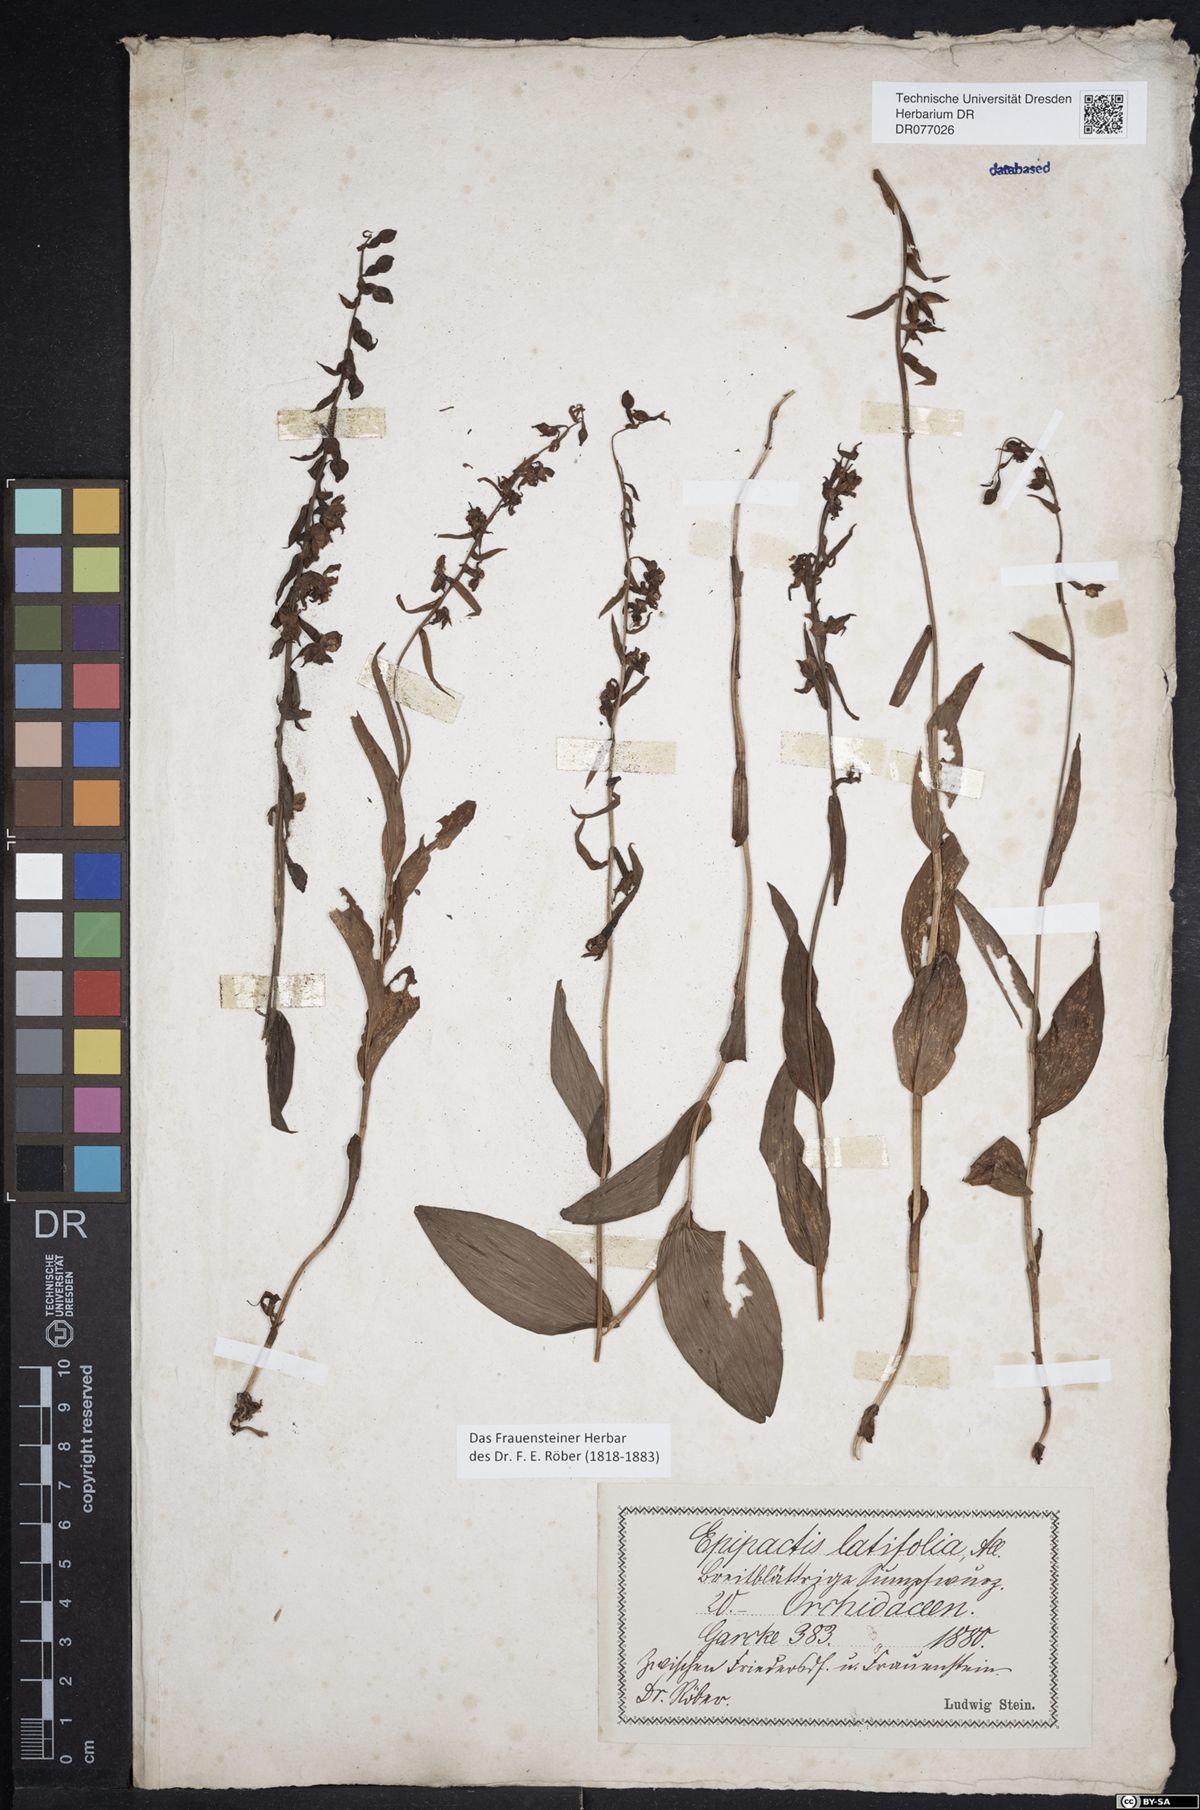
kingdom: Plantae
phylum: Tracheophyta
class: Liliopsida
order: Asparagales
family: Orchidaceae
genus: Epipactis
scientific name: Epipactis helleborine
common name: Broad-leaved helleborine
